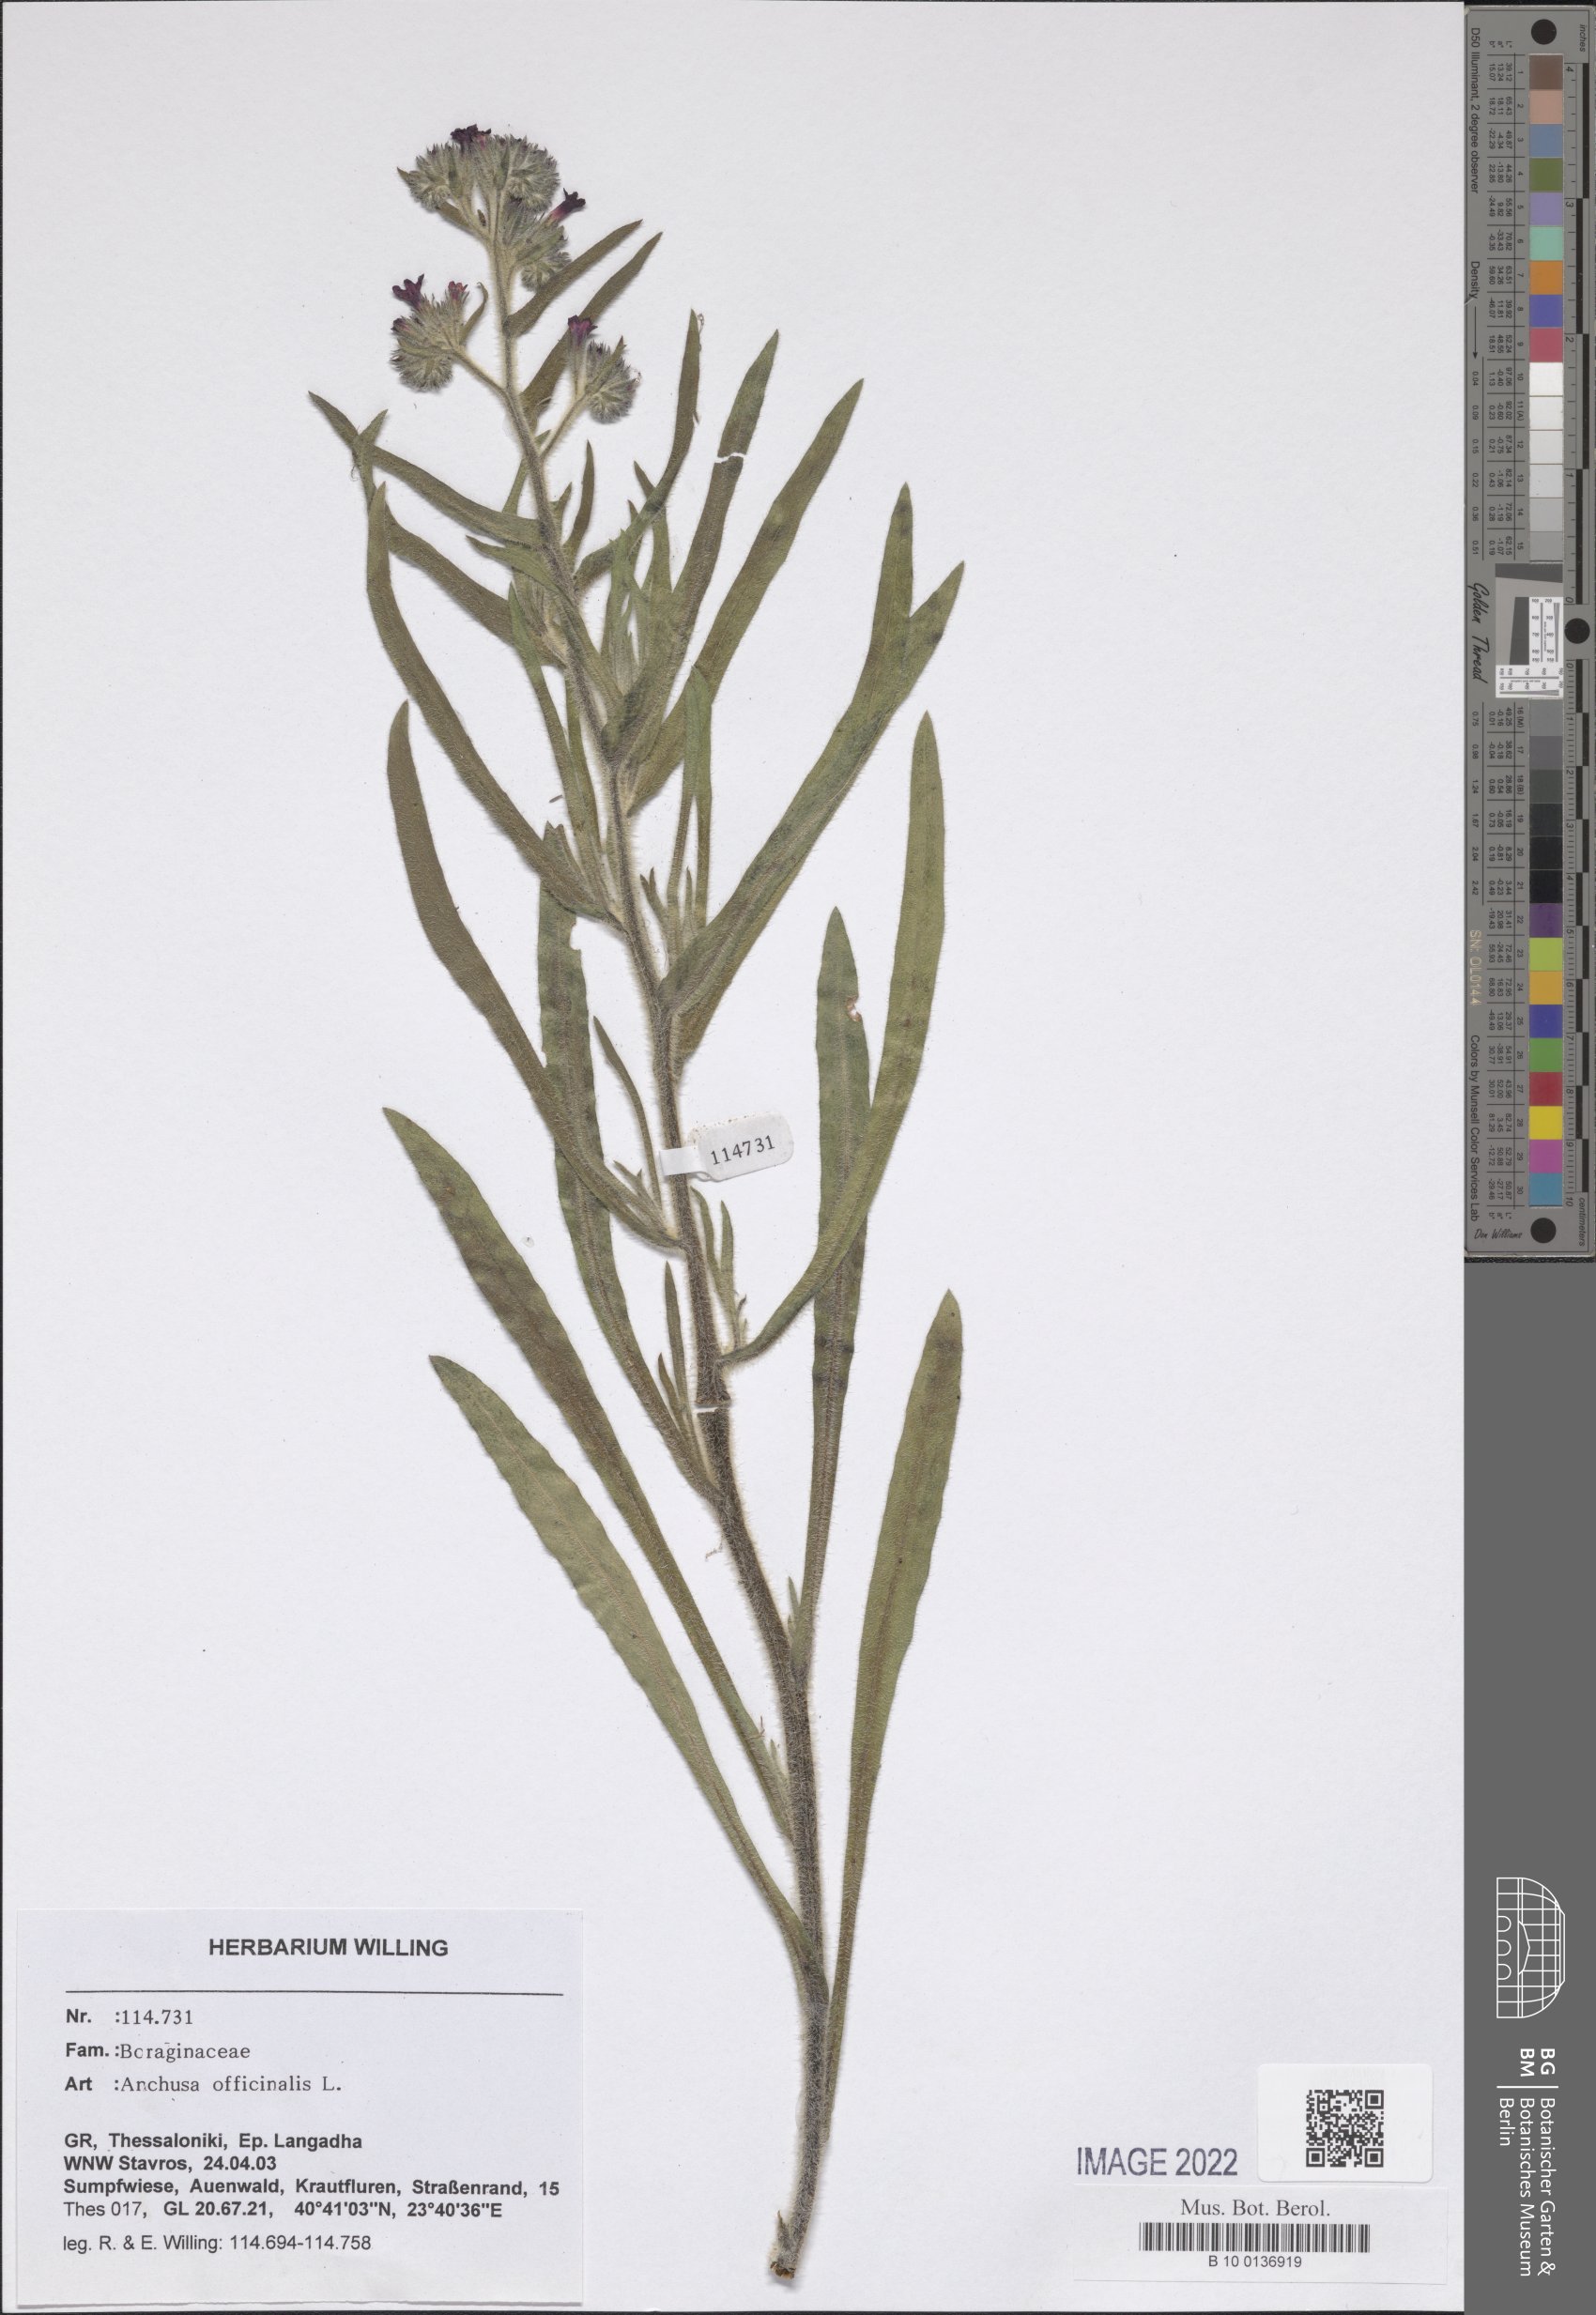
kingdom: Plantae
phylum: Tracheophyta
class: Magnoliopsida
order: Boraginales
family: Boraginaceae
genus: Anchusa
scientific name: Anchusa officinalis
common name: Alkanet
